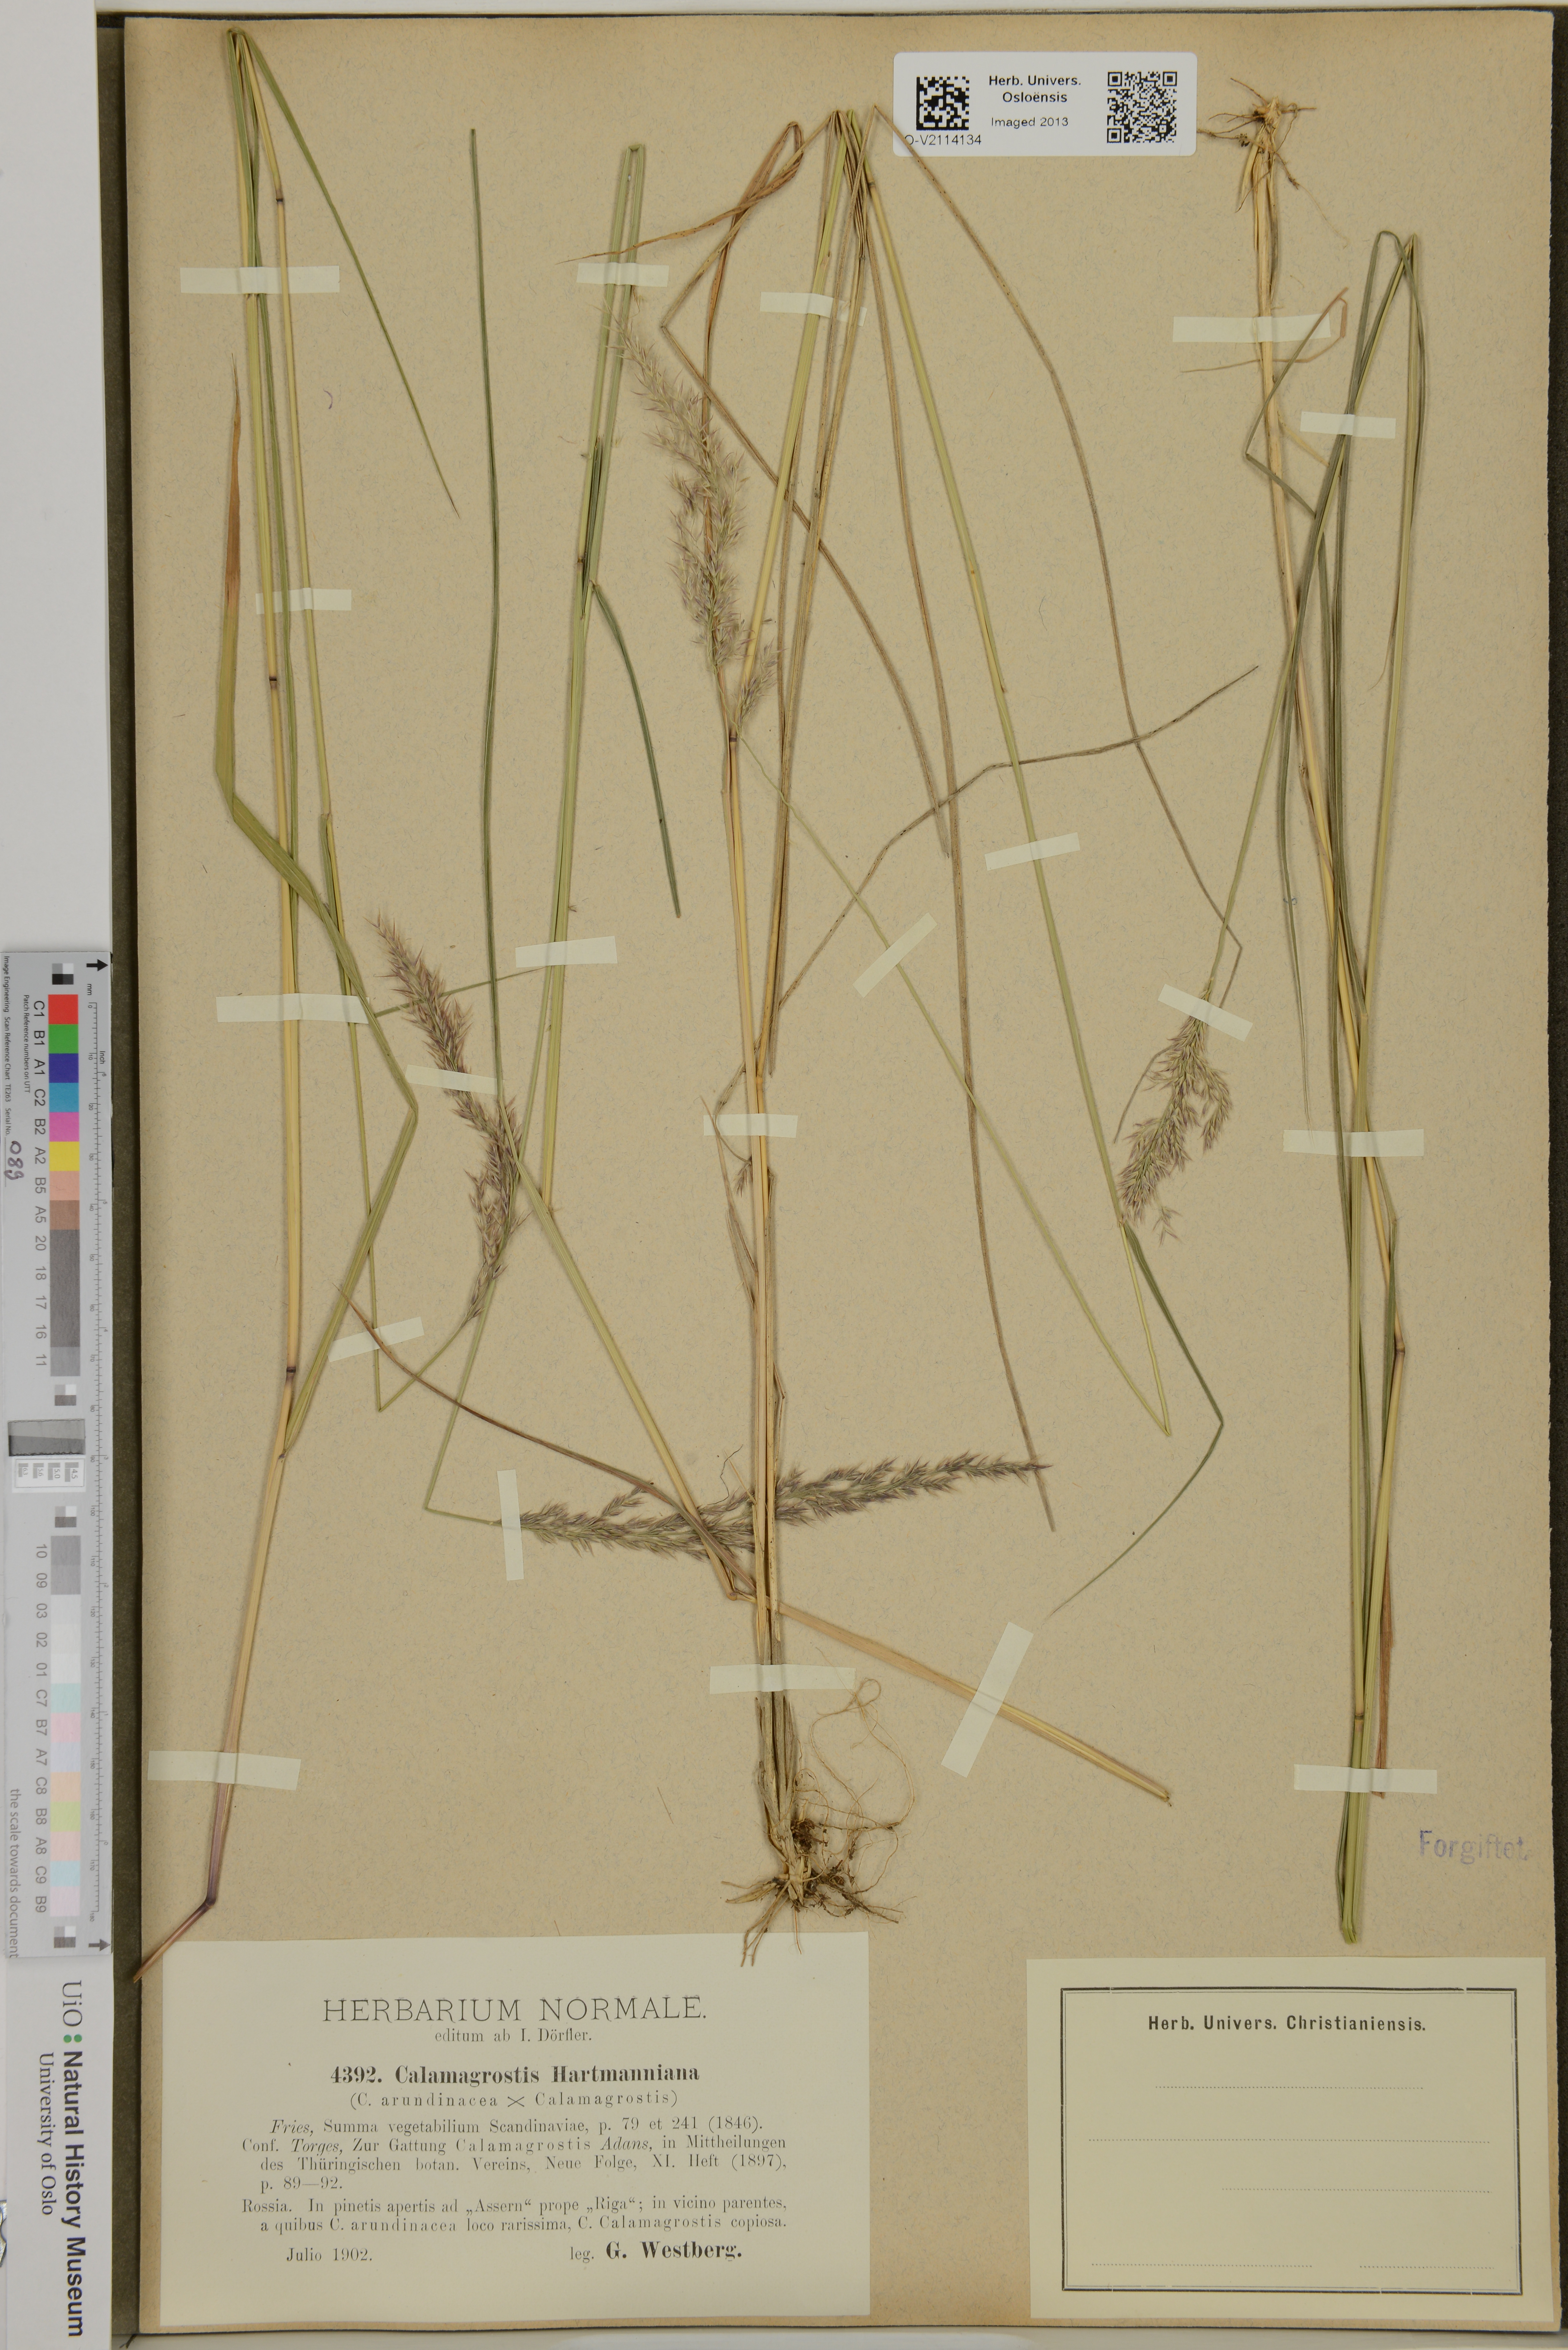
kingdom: Plantae
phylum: Tracheophyta
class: Liliopsida
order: Poales
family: Poaceae
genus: Calamagrostis
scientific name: Calamagrostis arundinacea
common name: Metskastik
